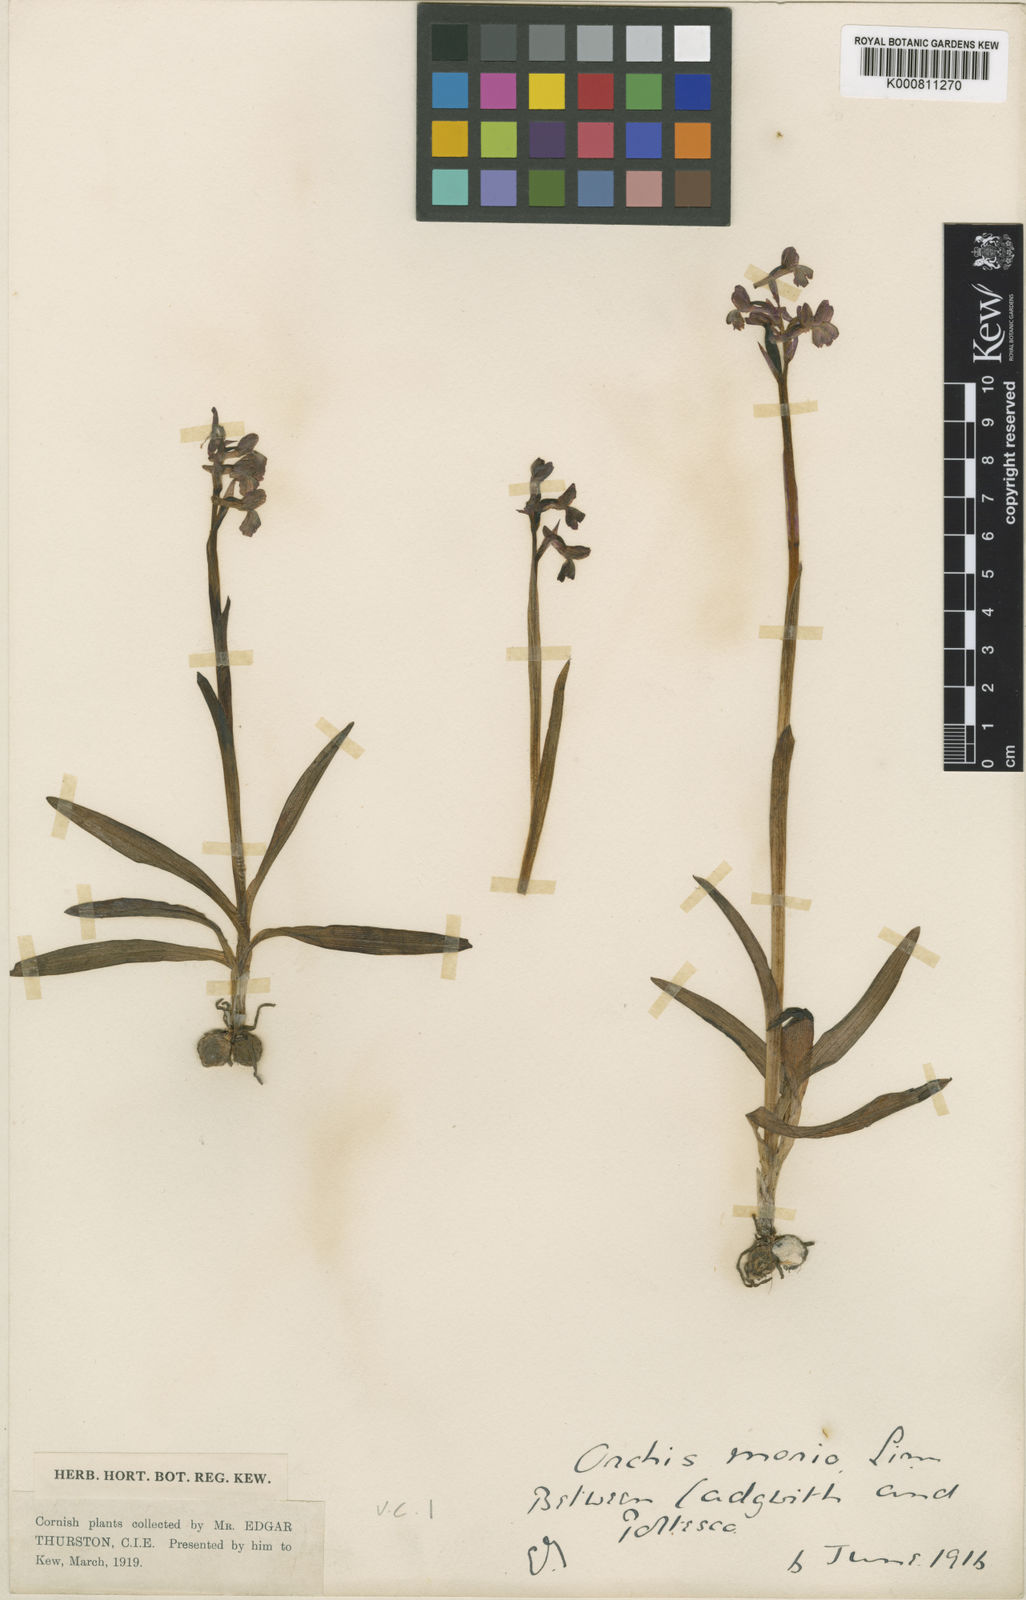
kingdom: Plantae
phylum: Tracheophyta
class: Liliopsida
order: Asparagales
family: Orchidaceae
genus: Anacamptis
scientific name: Anacamptis morio
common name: Green-winged orchid
